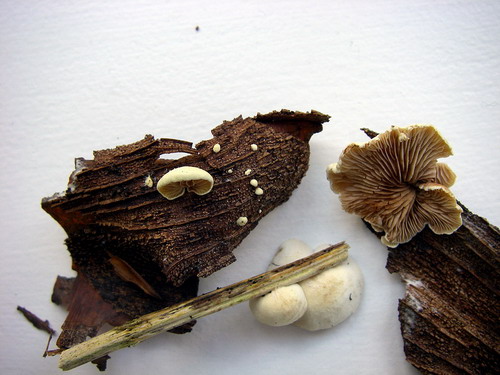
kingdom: Fungi
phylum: Basidiomycota
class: Agaricomycetes
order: Agaricales
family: Crepidotaceae
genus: Crepidotus
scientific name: Crepidotus luteolus
